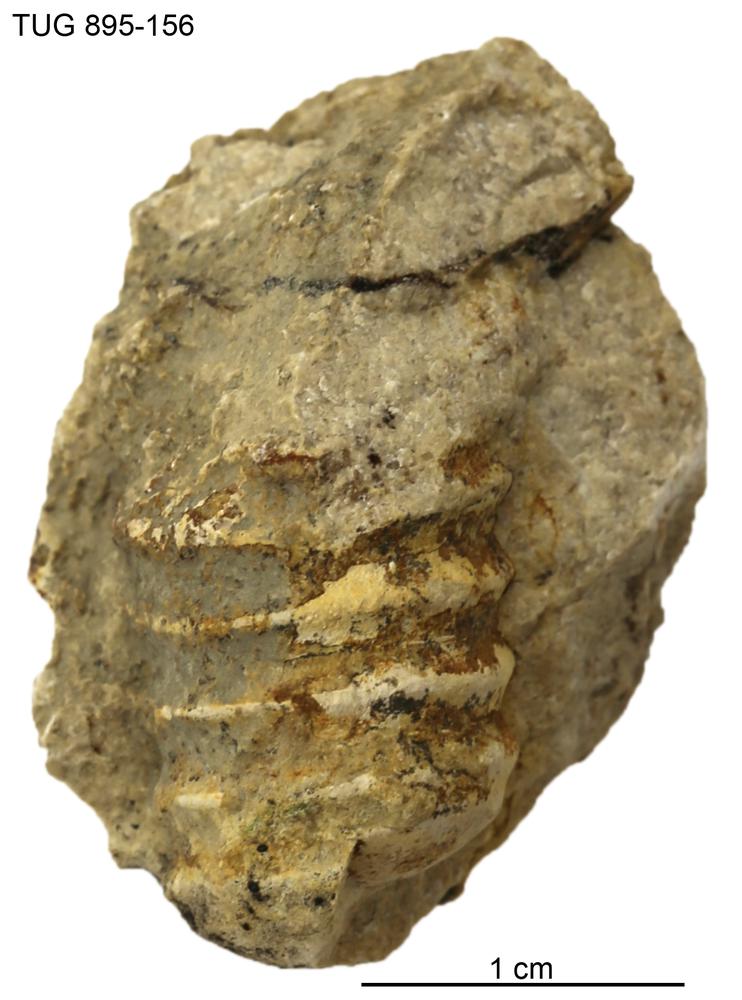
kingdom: Animalia
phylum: Mollusca
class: Cephalopoda
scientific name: Cephalopoda
